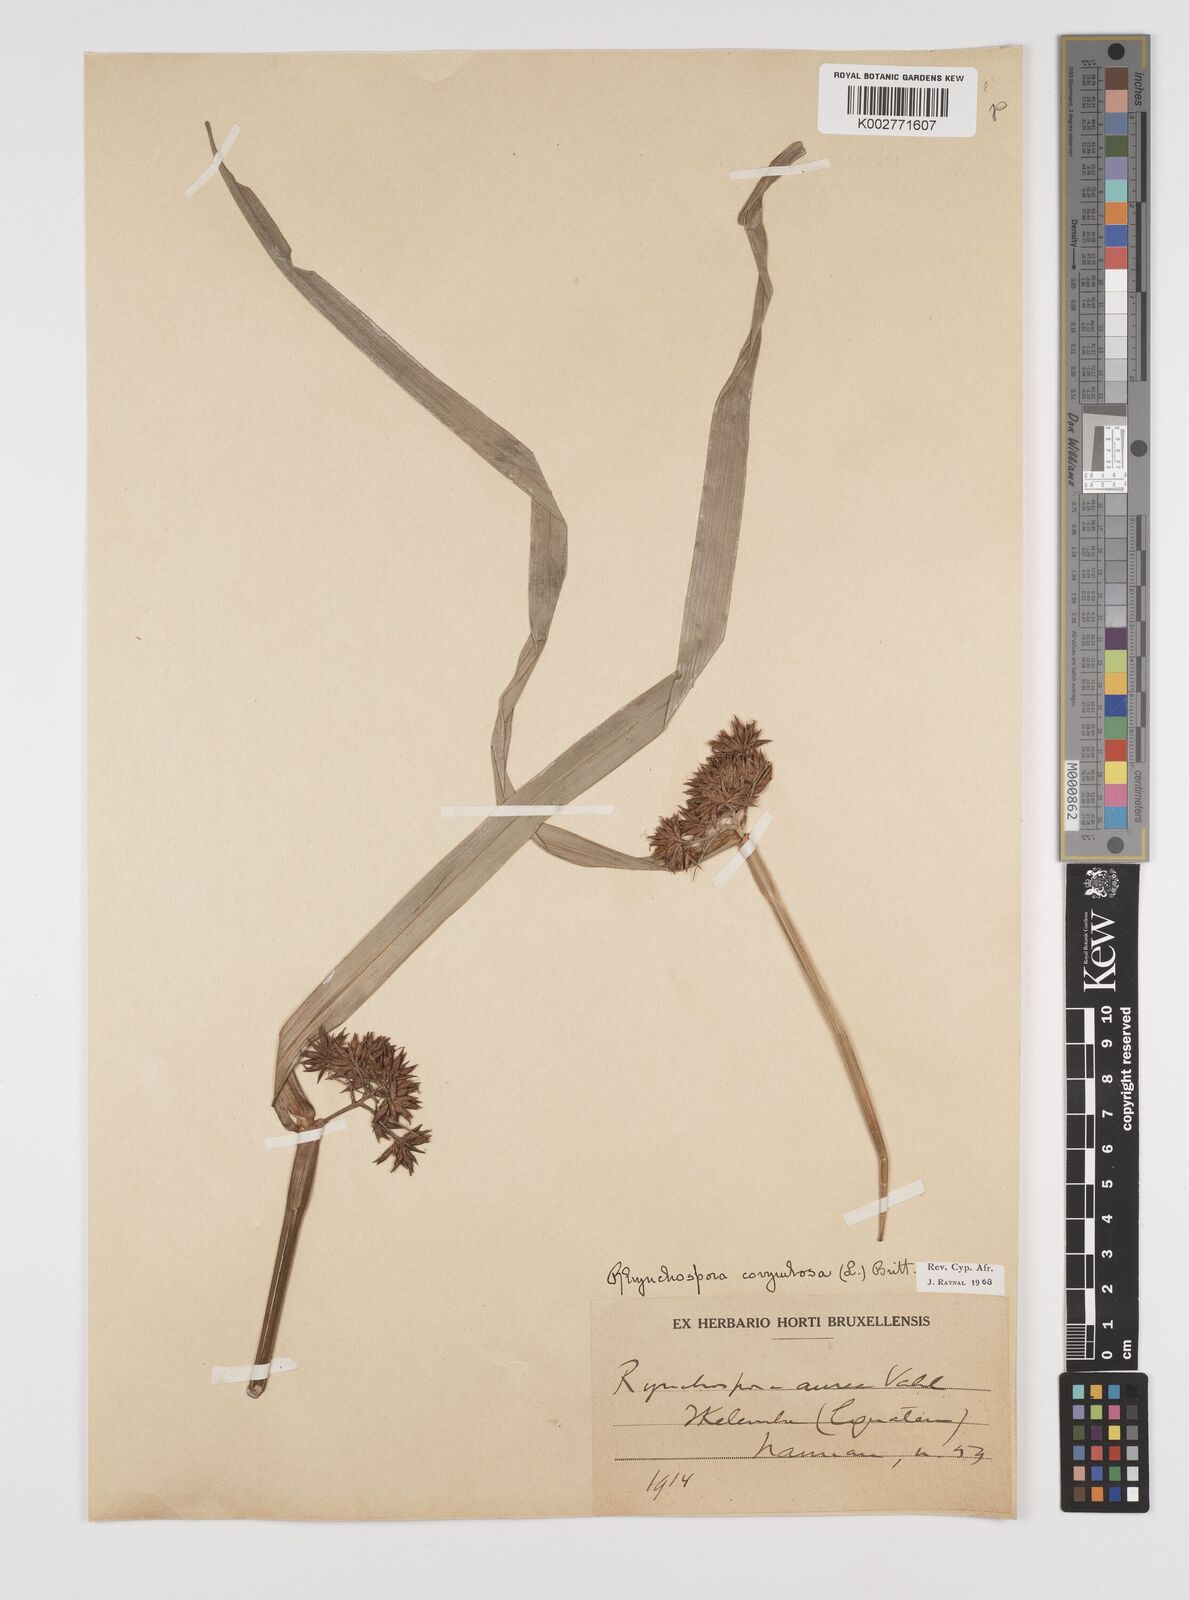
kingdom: Plantae
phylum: Tracheophyta
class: Liliopsida
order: Poales
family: Cyperaceae
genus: Rhynchospora
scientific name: Rhynchospora corymbosa
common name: Golden beak sedge
